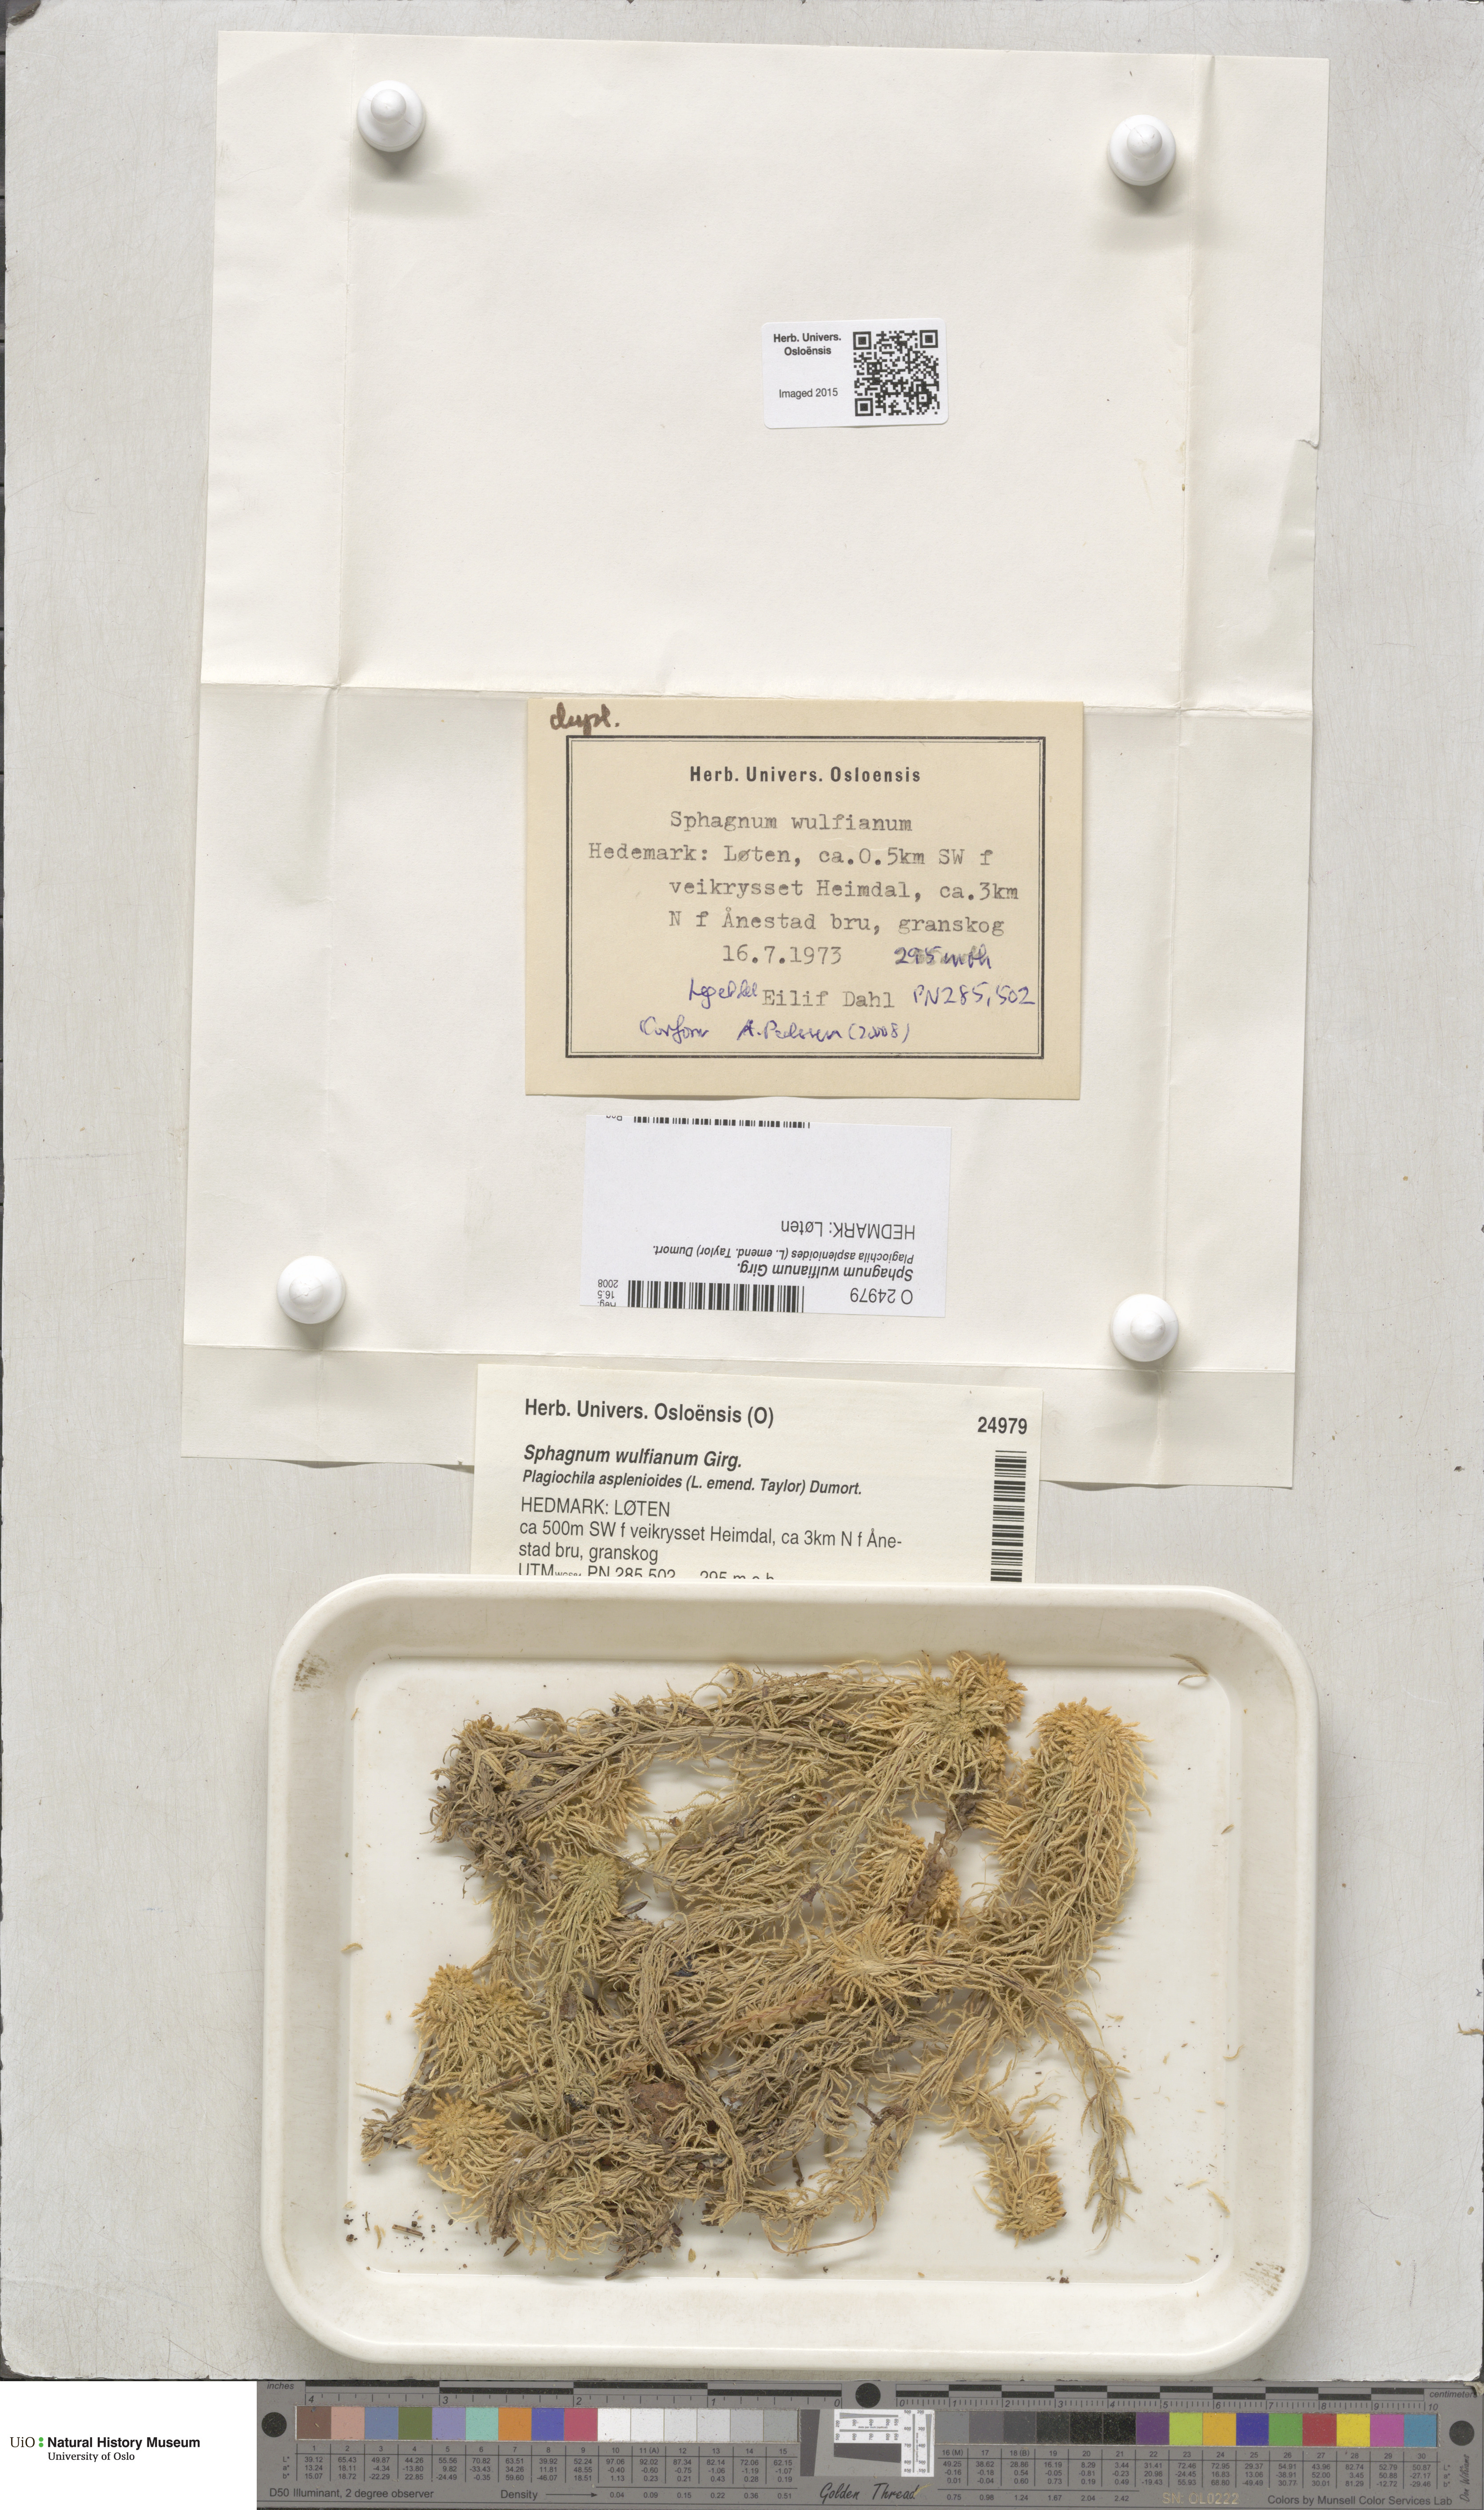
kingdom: Plantae
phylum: Bryophyta
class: Sphagnopsida
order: Sphagnales
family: Sphagnaceae
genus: Sphagnum
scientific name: Sphagnum wulfianum
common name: Wulf's peat moss
